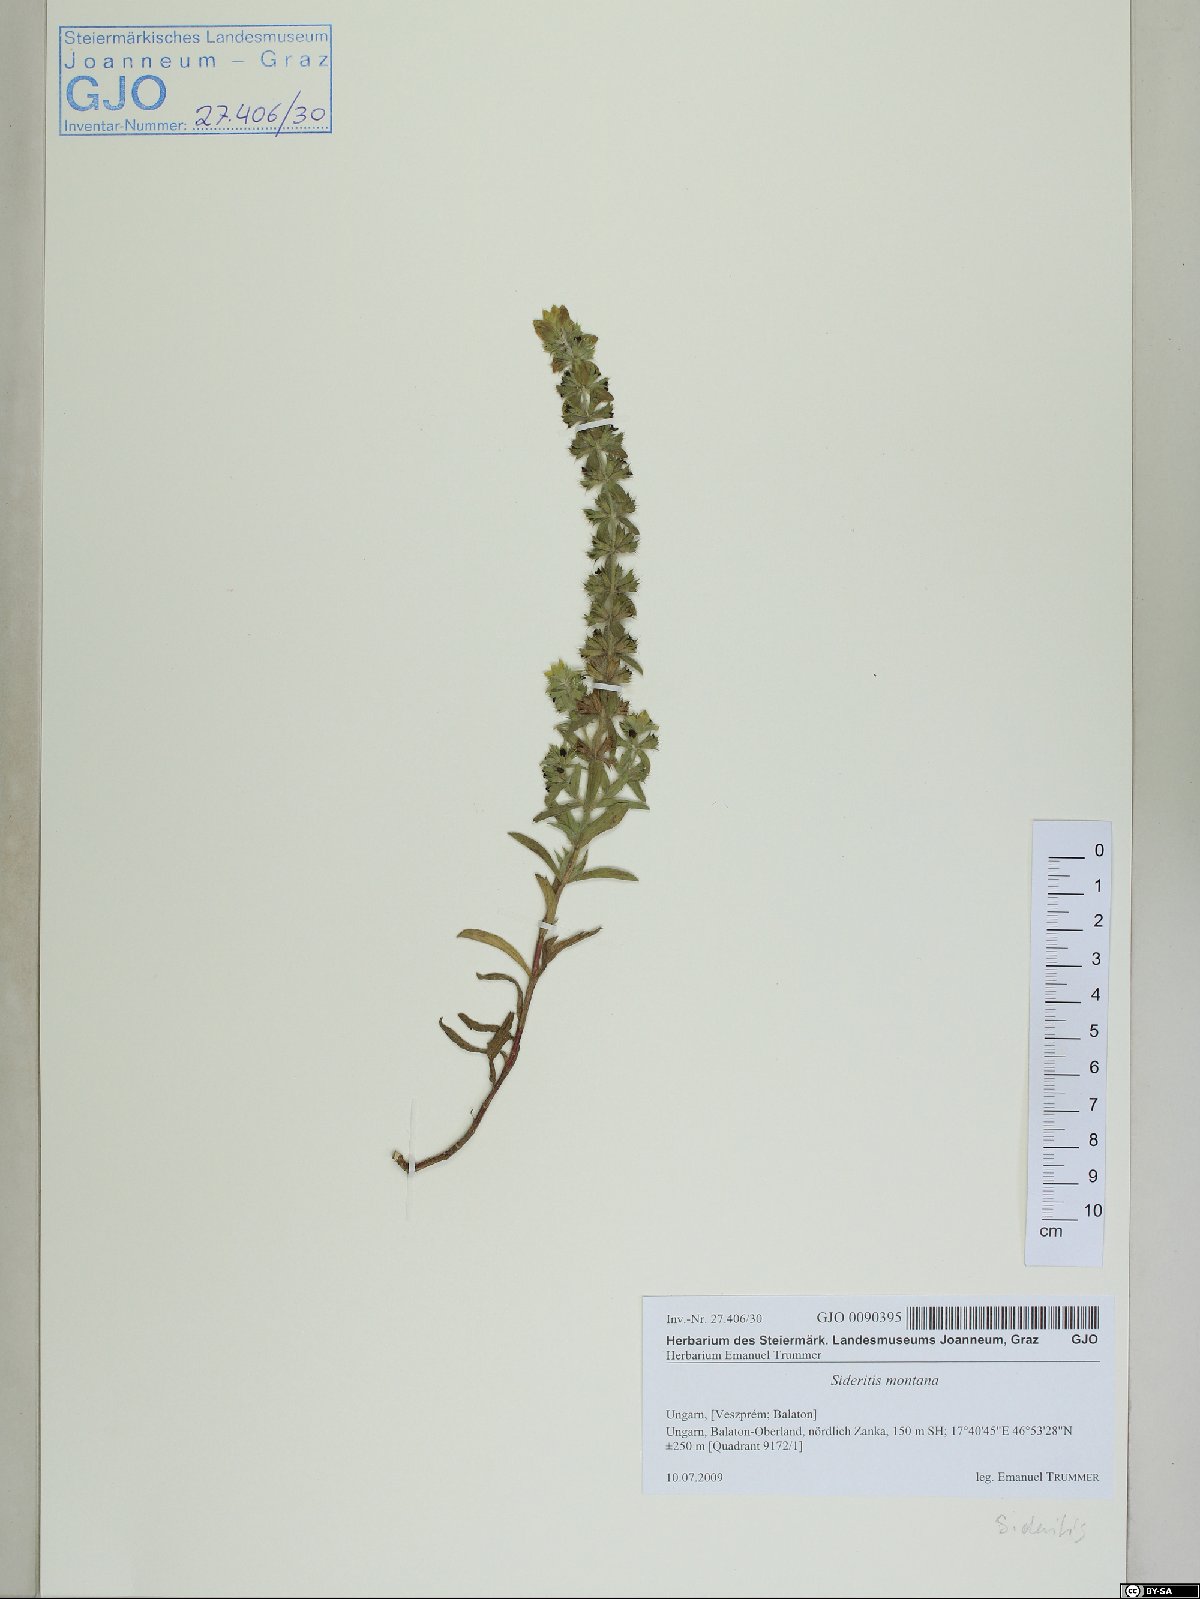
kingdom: Plantae
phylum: Tracheophyta
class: Magnoliopsida
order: Lamiales
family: Lamiaceae
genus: Sideritis
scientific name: Sideritis montana
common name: Mountain ironwort
